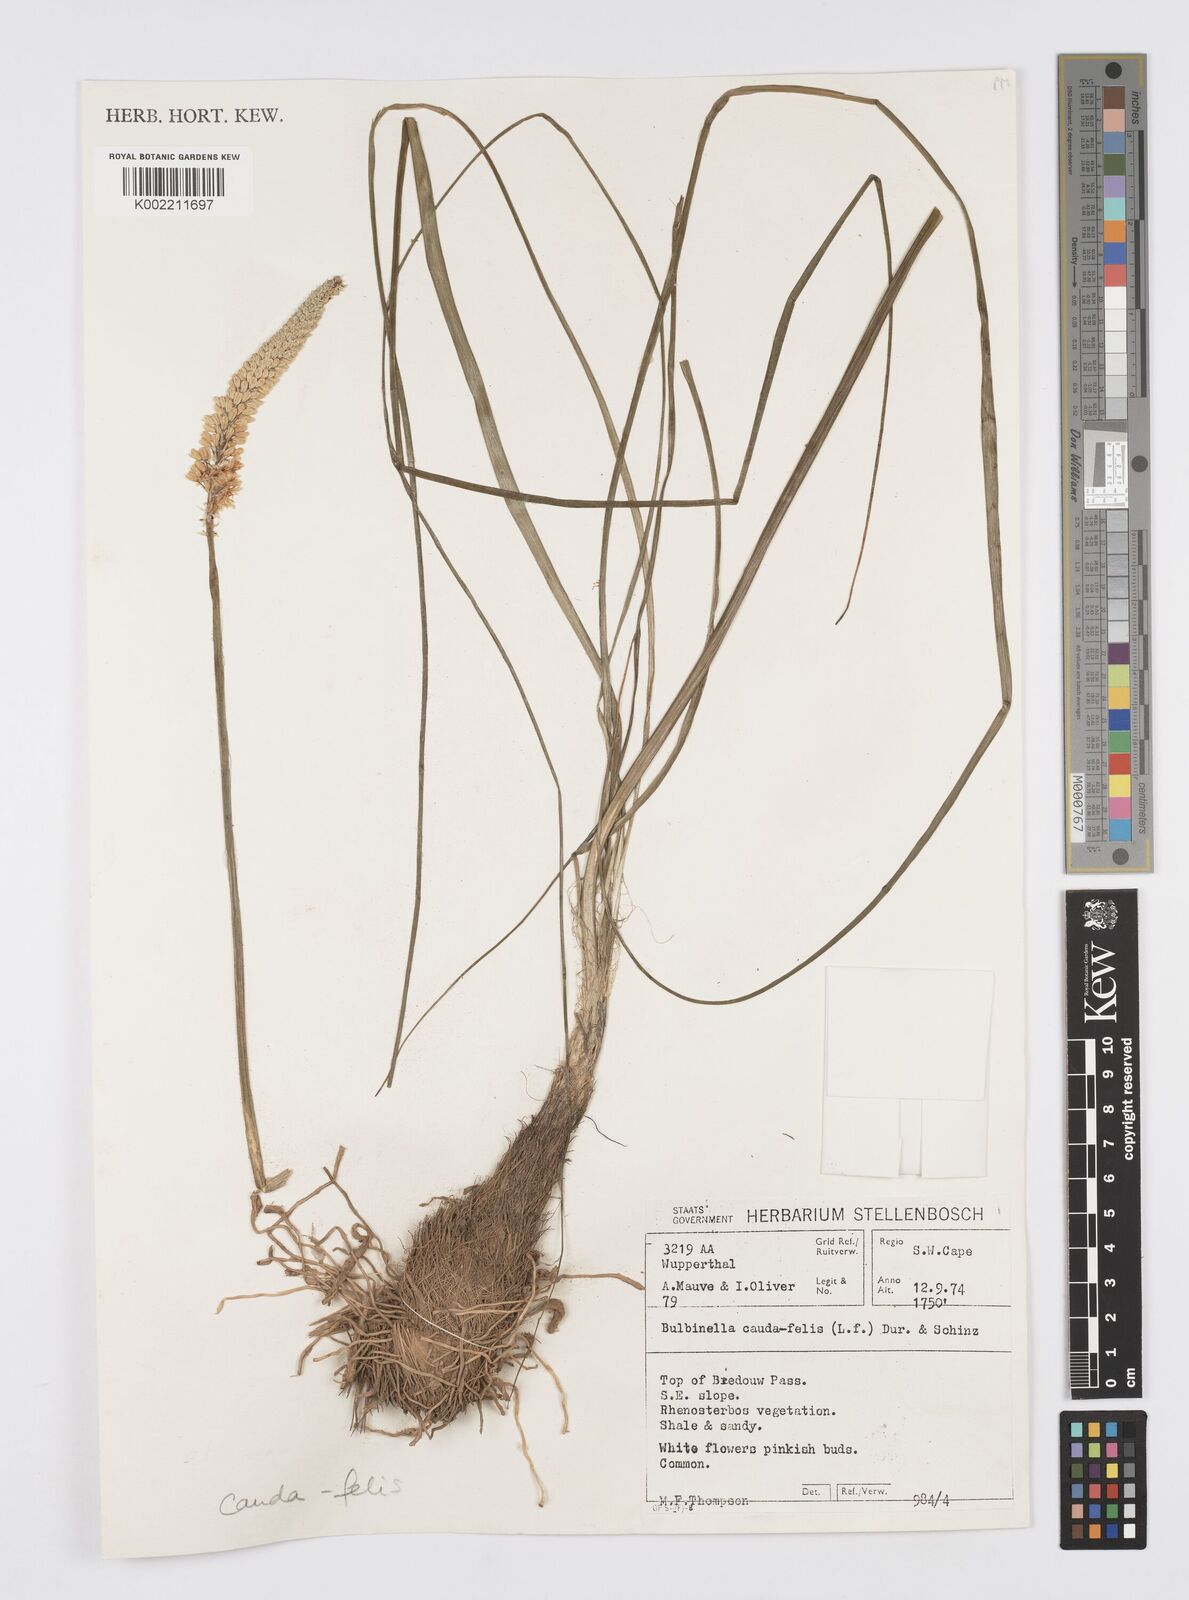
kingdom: Plantae
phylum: Tracheophyta
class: Liliopsida
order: Asparagales
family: Asphodelaceae
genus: Bulbinella
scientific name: Bulbinella cauda-felis
